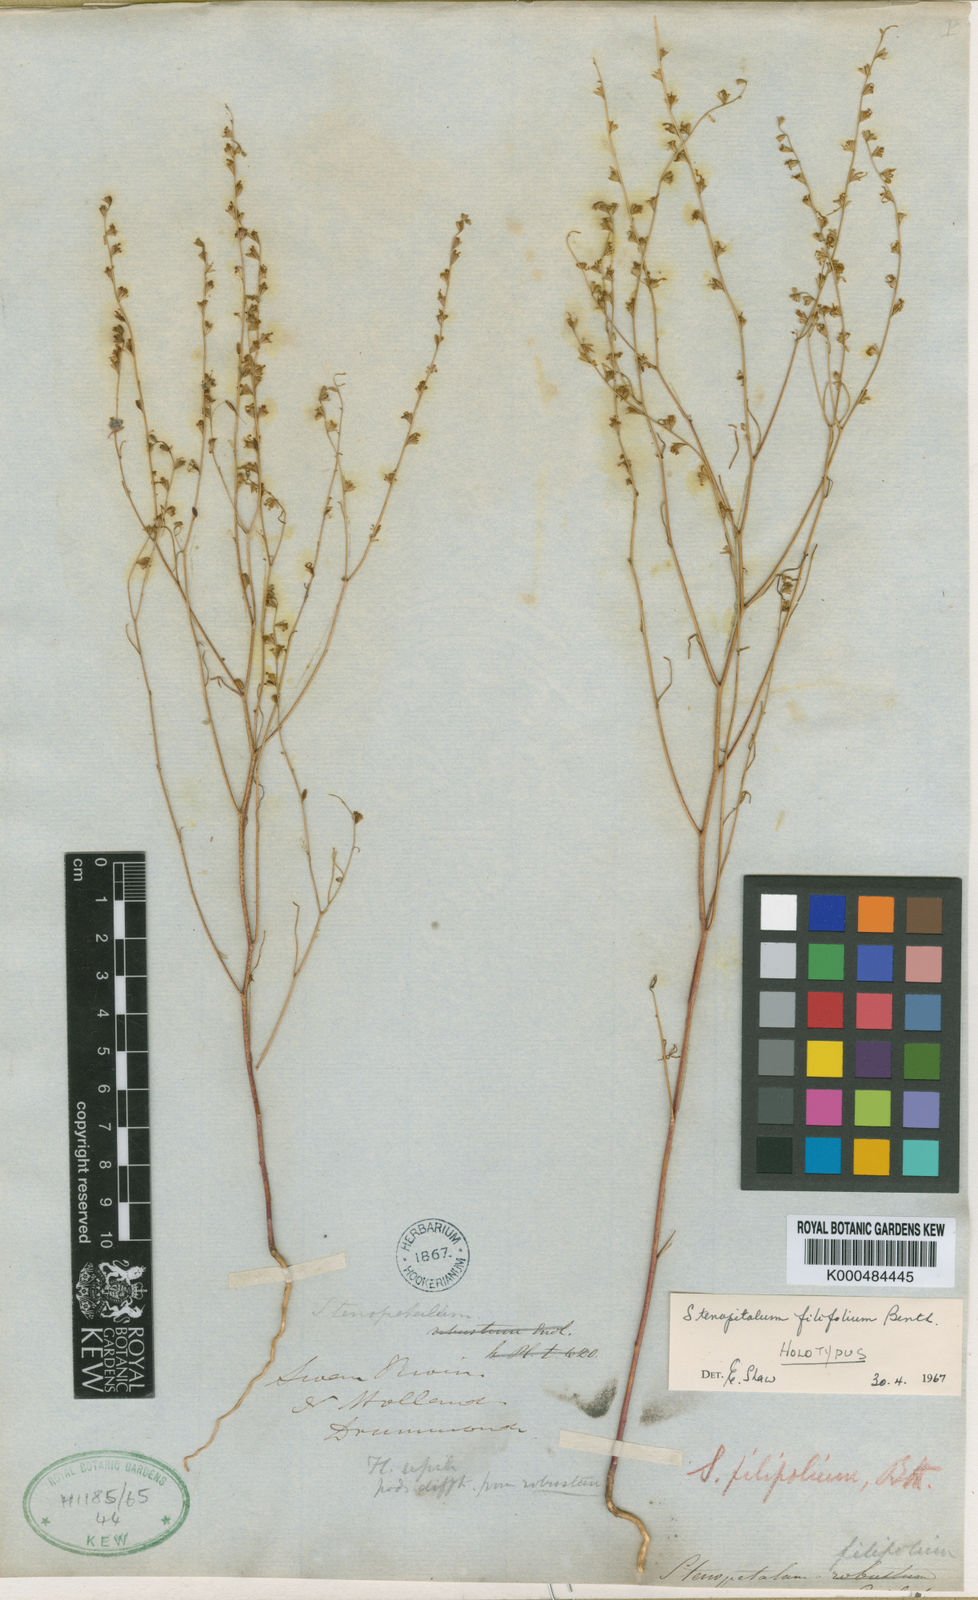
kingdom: Plantae
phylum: Tracheophyta
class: Magnoliopsida
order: Brassicales
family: Brassicaceae
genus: Stenopetalum
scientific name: Stenopetalum filifolium
